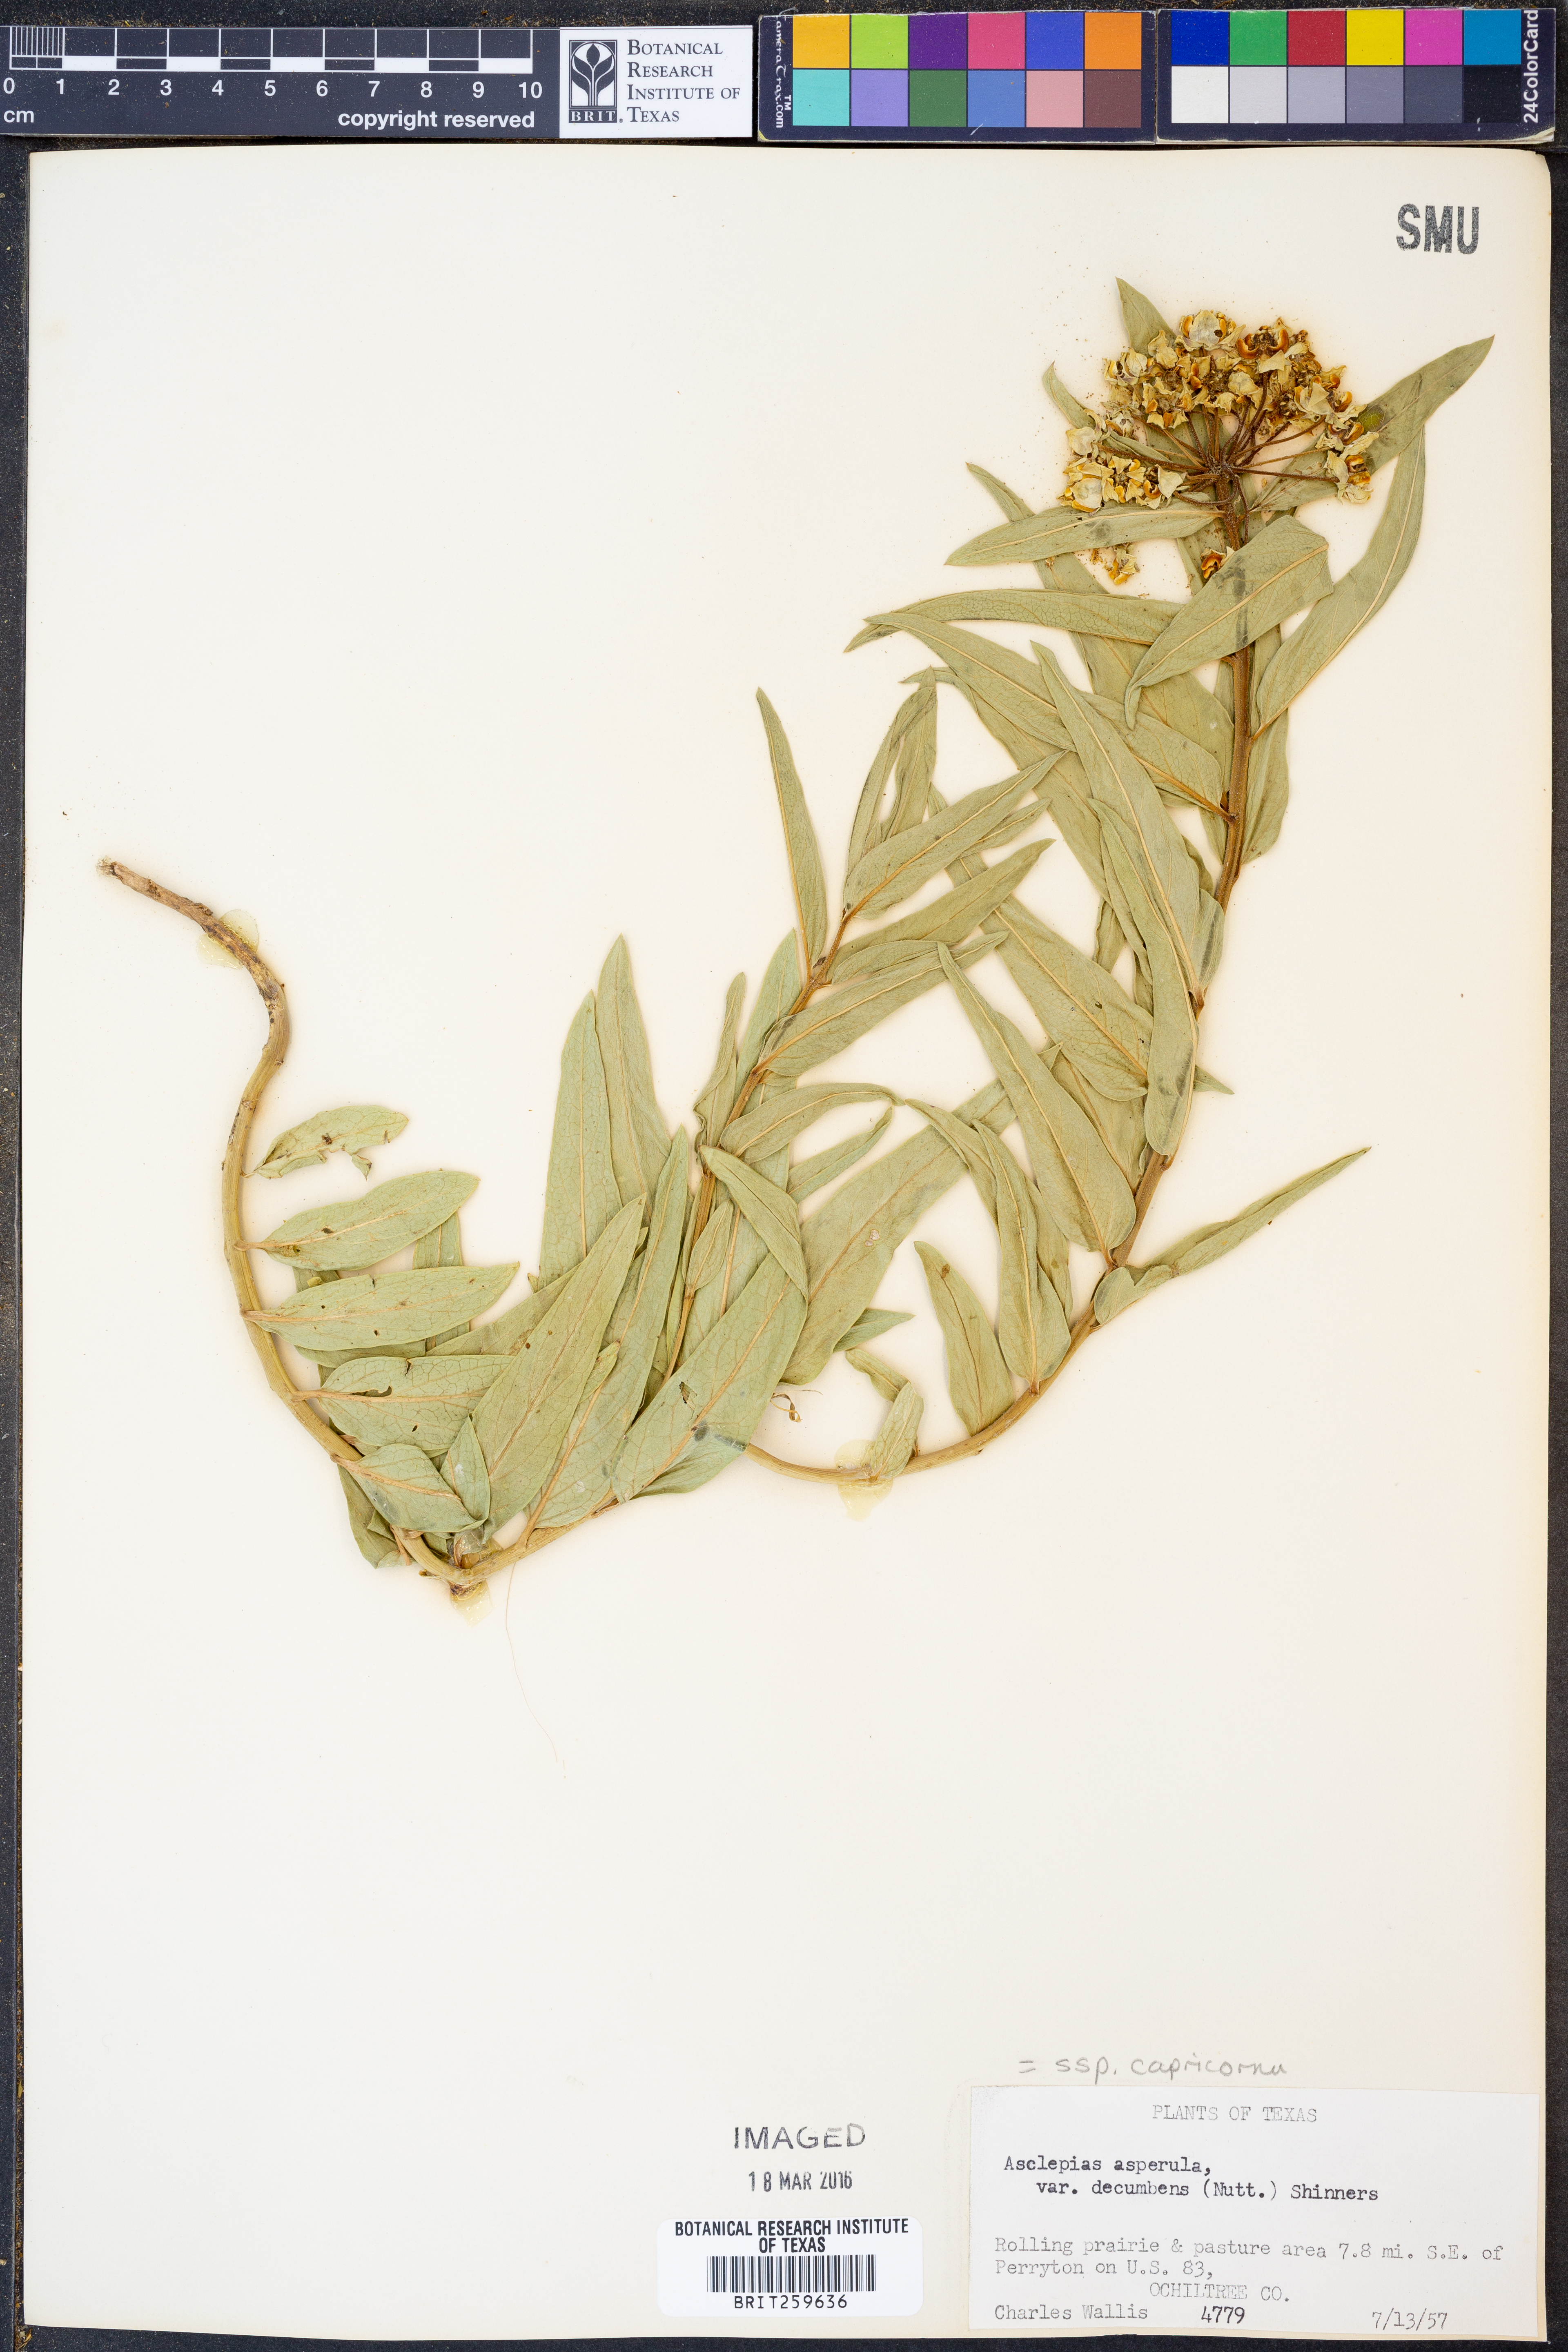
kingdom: Plantae
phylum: Tracheophyta
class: Magnoliopsida
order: Gentianales
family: Apocynaceae
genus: Asclepias
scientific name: Asclepias asperula
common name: Antelope horns
